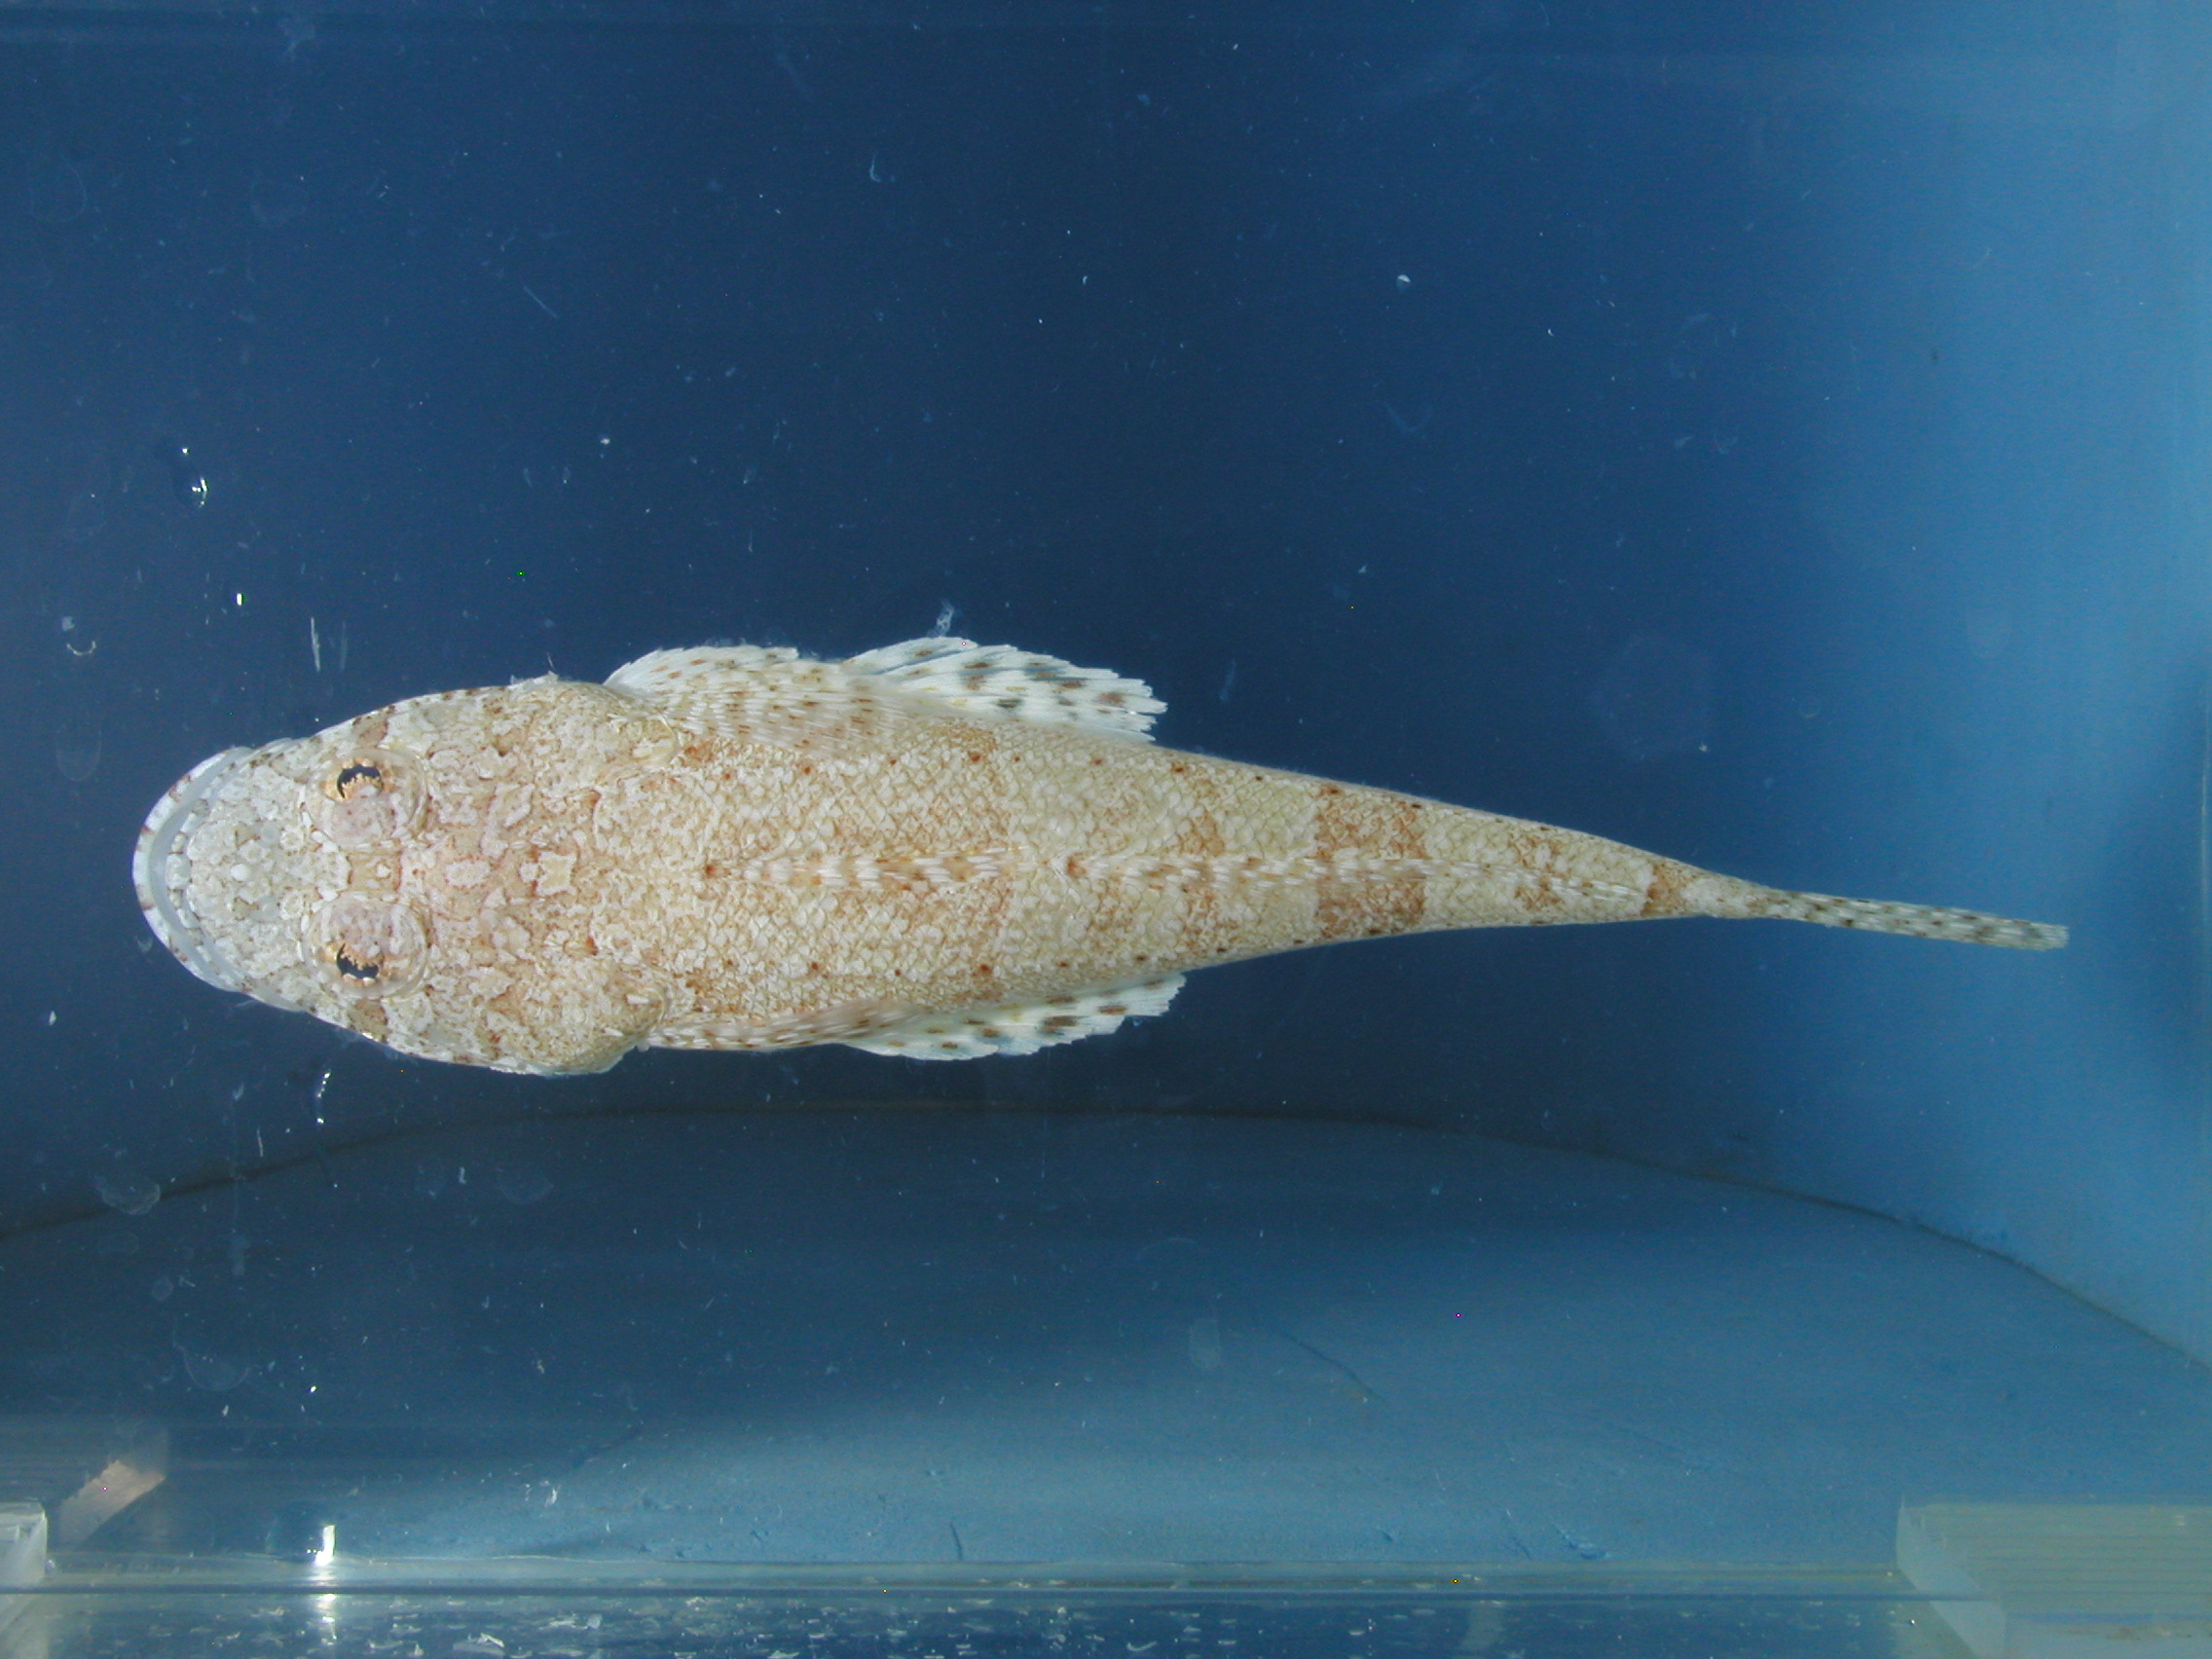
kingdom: Animalia
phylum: Chordata
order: Scorpaeniformes
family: Platycephalidae
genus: Sunagocia
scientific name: Sunagocia arenicola
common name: Broadhead flathead
